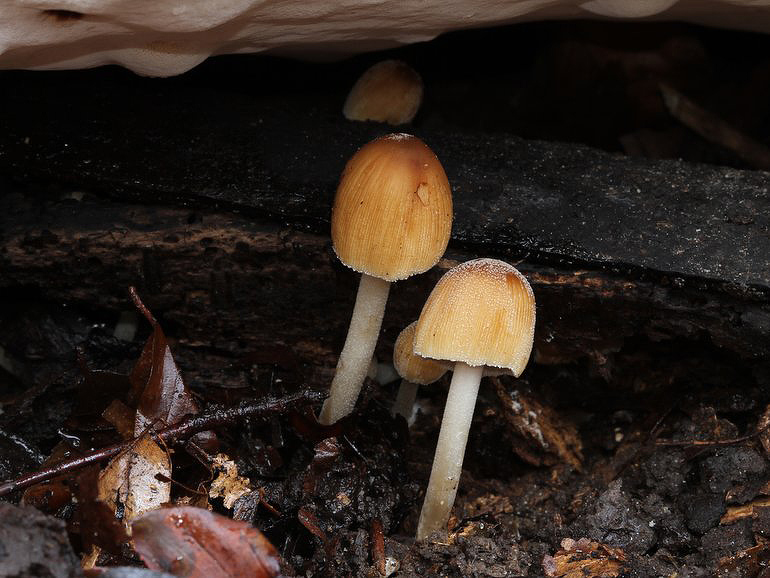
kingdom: Fungi
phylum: Basidiomycota
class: Agaricomycetes
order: Agaricales
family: Psathyrellaceae
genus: Coprinellus
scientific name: Coprinellus micaceus
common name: glimmer-blækhat
